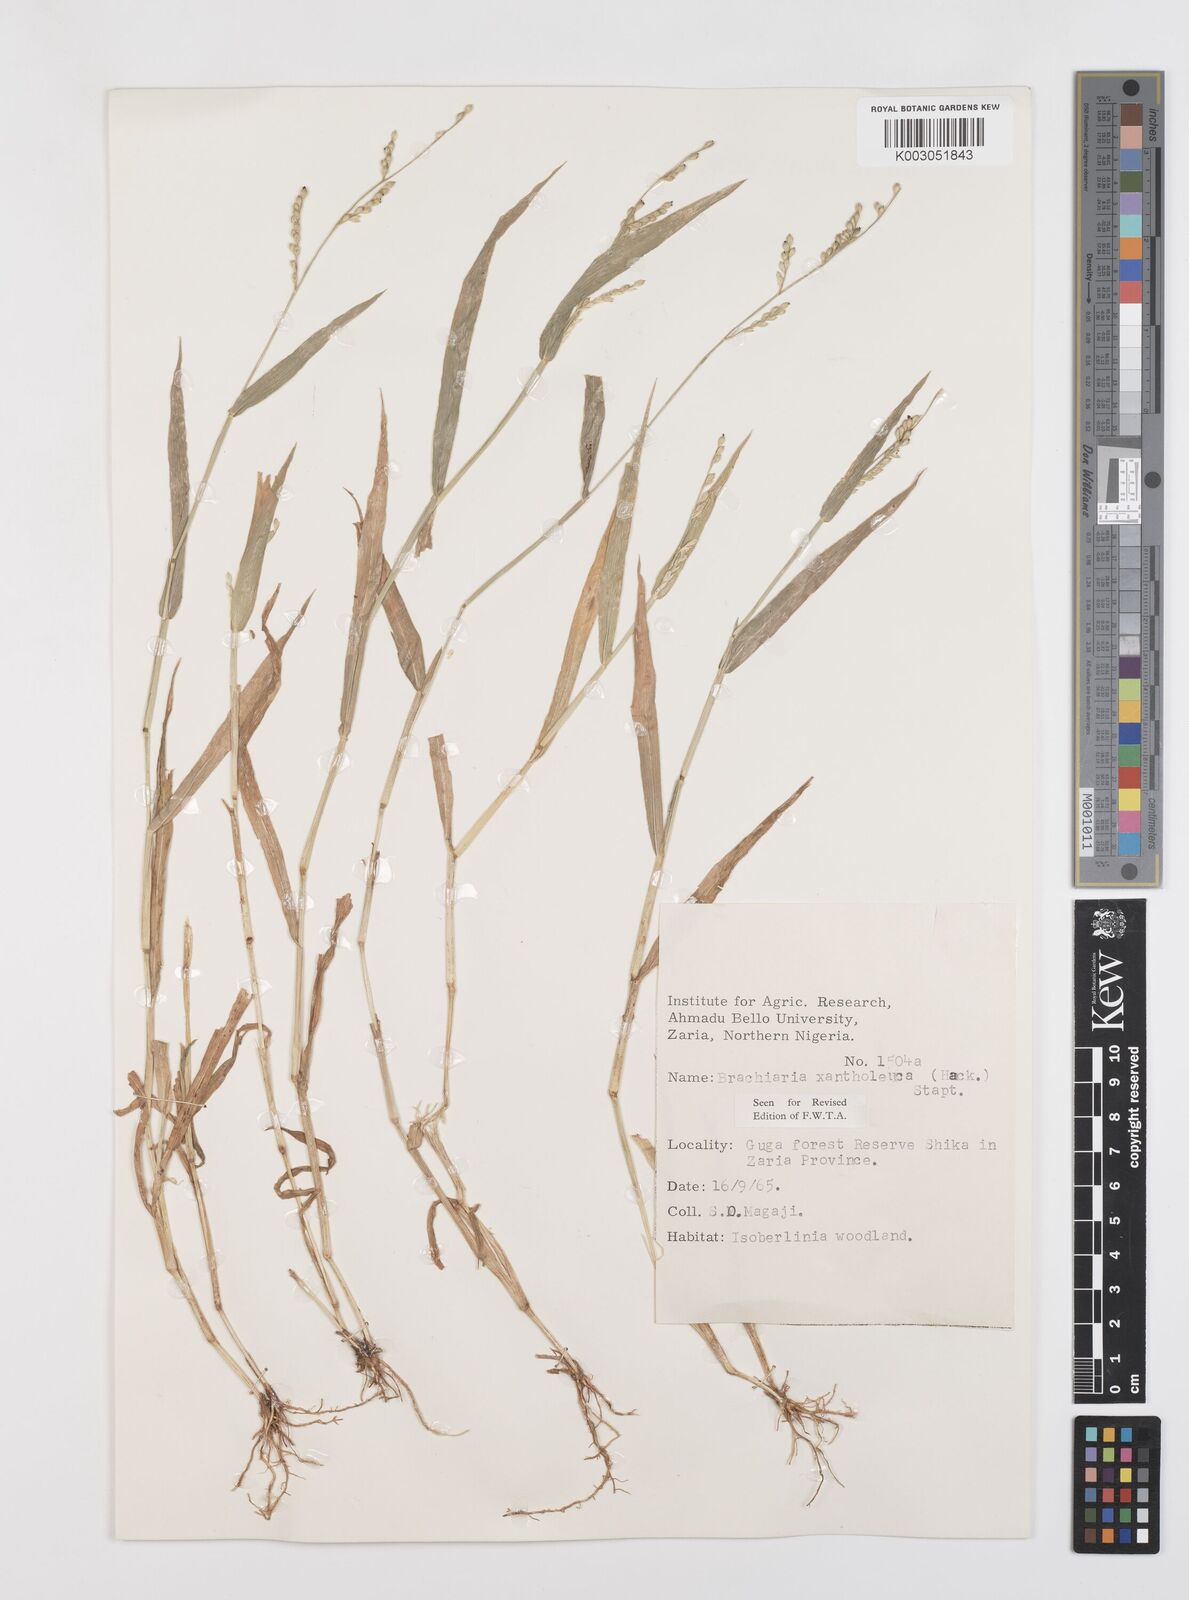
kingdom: Plantae
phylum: Tracheophyta
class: Liliopsida
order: Poales
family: Poaceae
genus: Urochloa
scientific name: Urochloa xantholeuca
